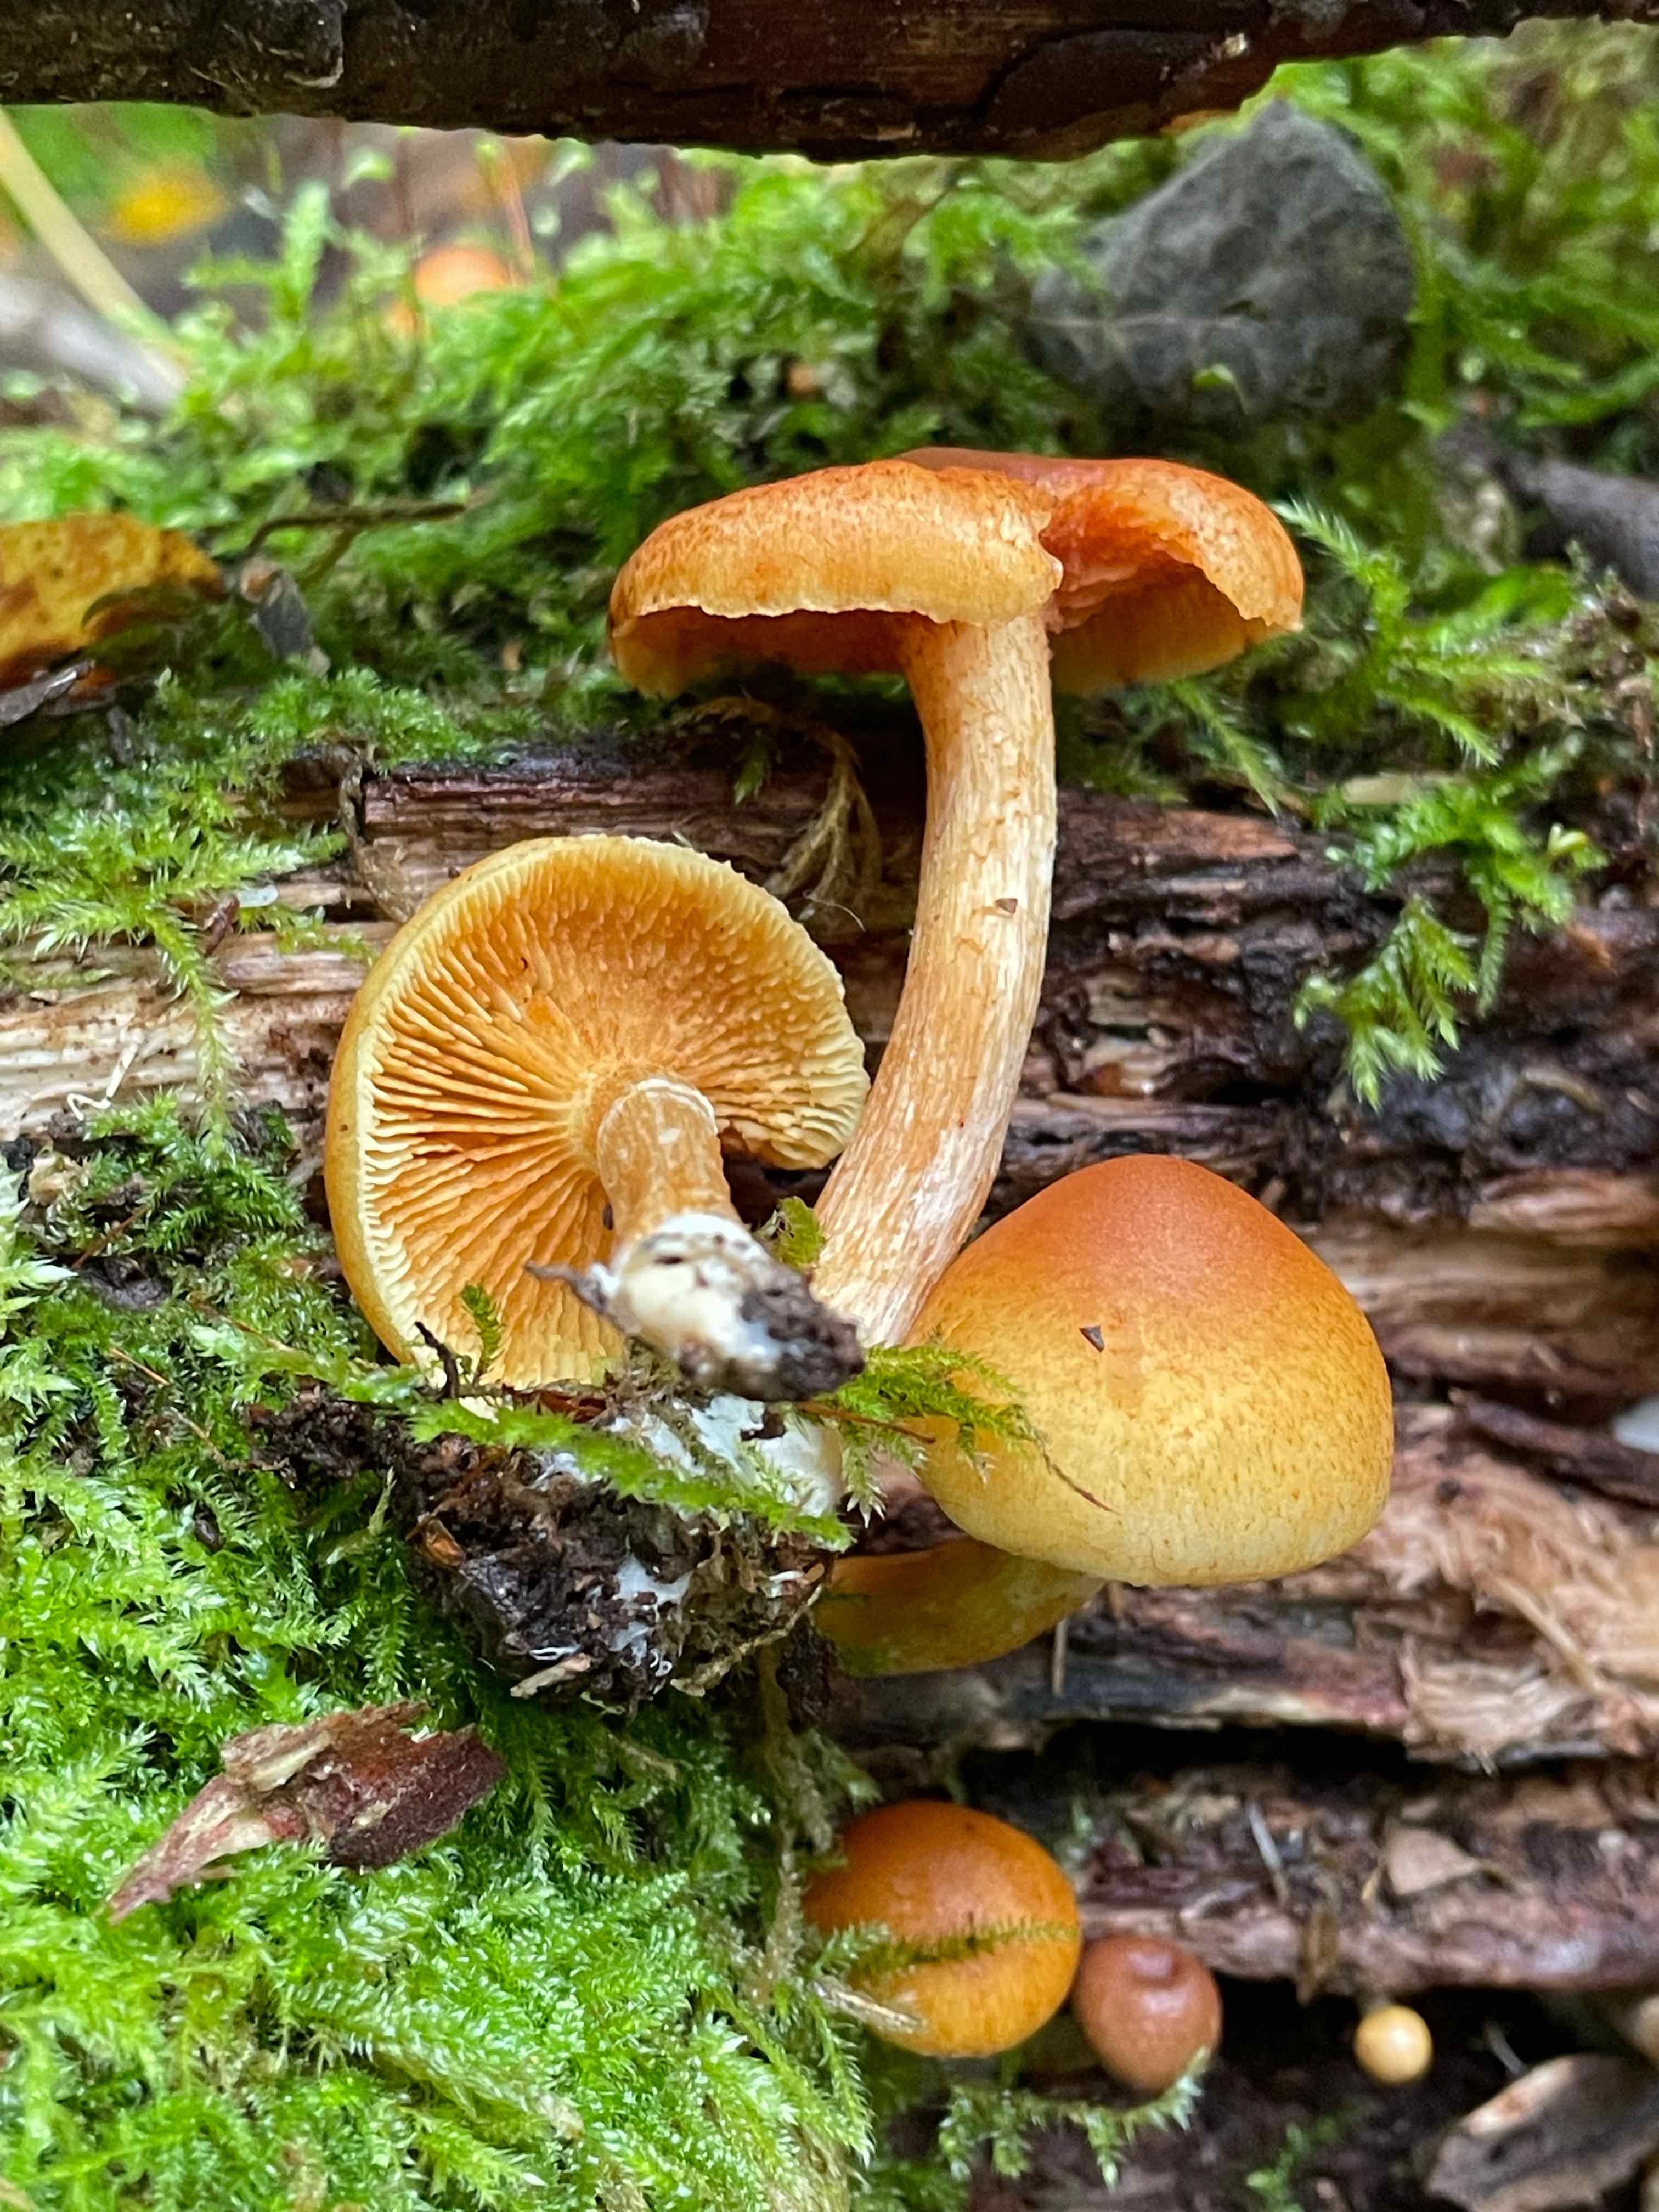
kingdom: Fungi
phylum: Basidiomycota
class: Agaricomycetes
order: Agaricales
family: Hymenogastraceae
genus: Gymnopilus
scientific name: Gymnopilus penetrans
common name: plettet flammehat
